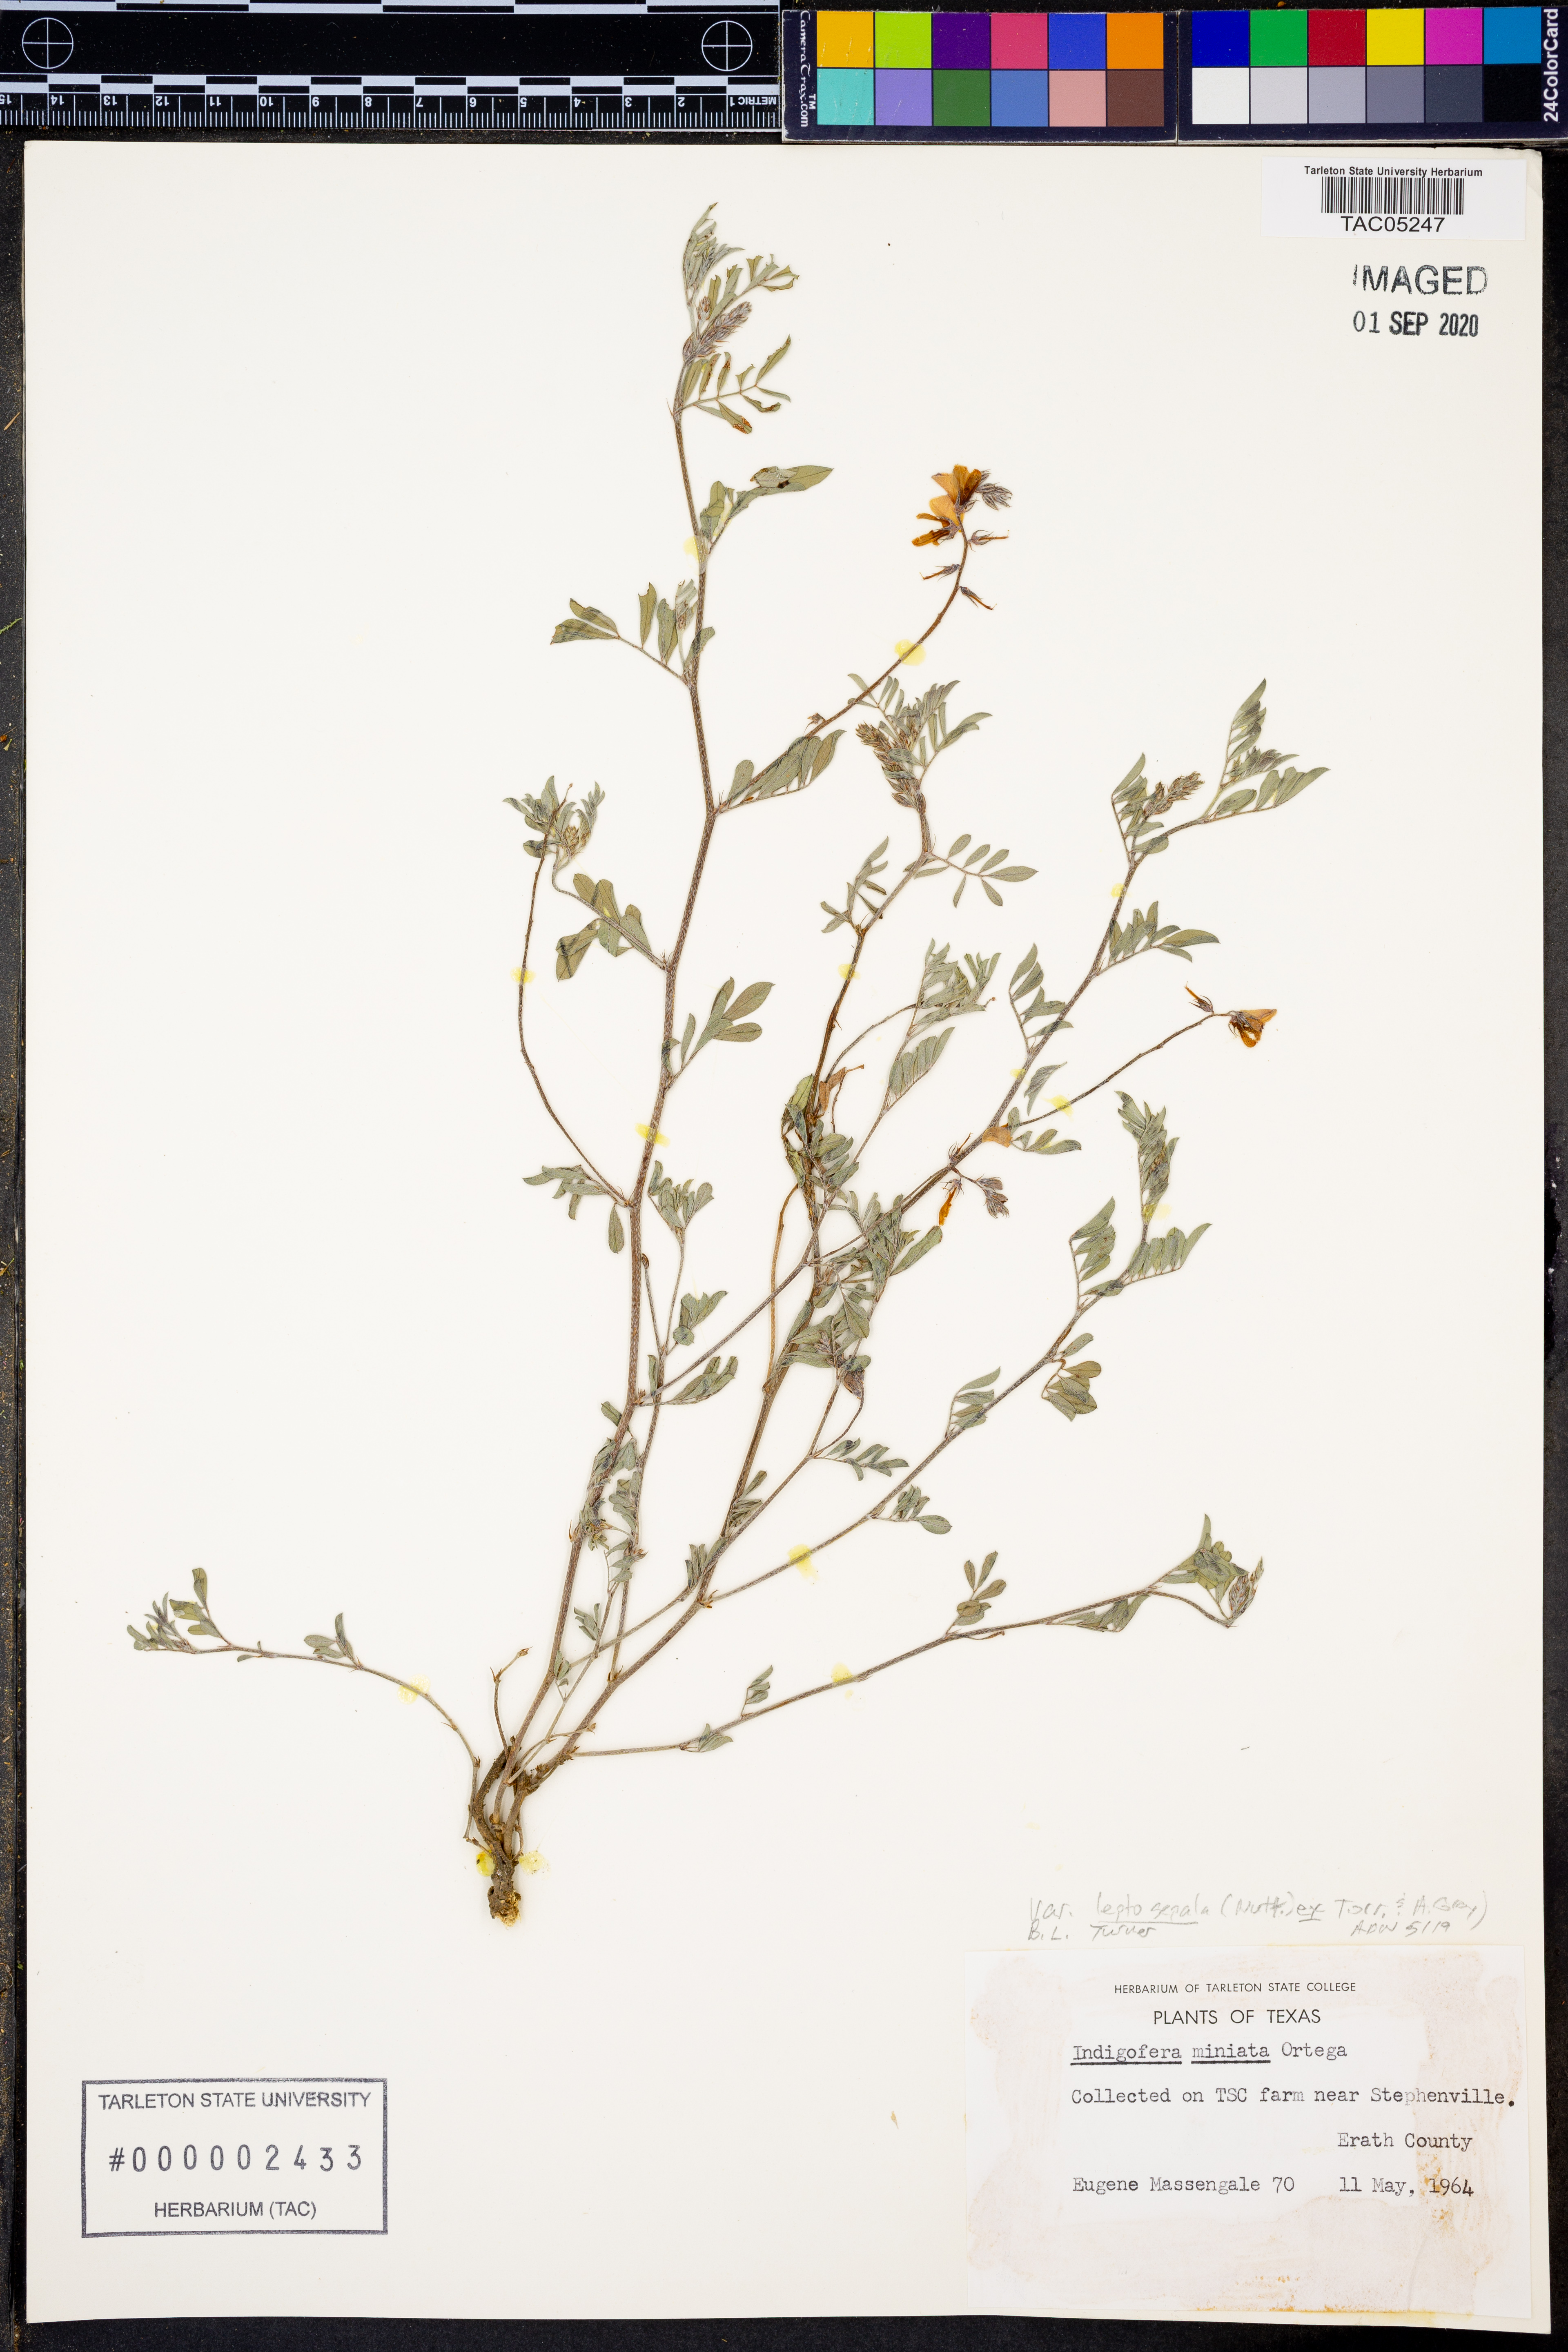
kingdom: Plantae
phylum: Tracheophyta
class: Magnoliopsida
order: Fabales
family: Fabaceae
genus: Indigofera
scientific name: Indigofera miniata
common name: Coast indigo
